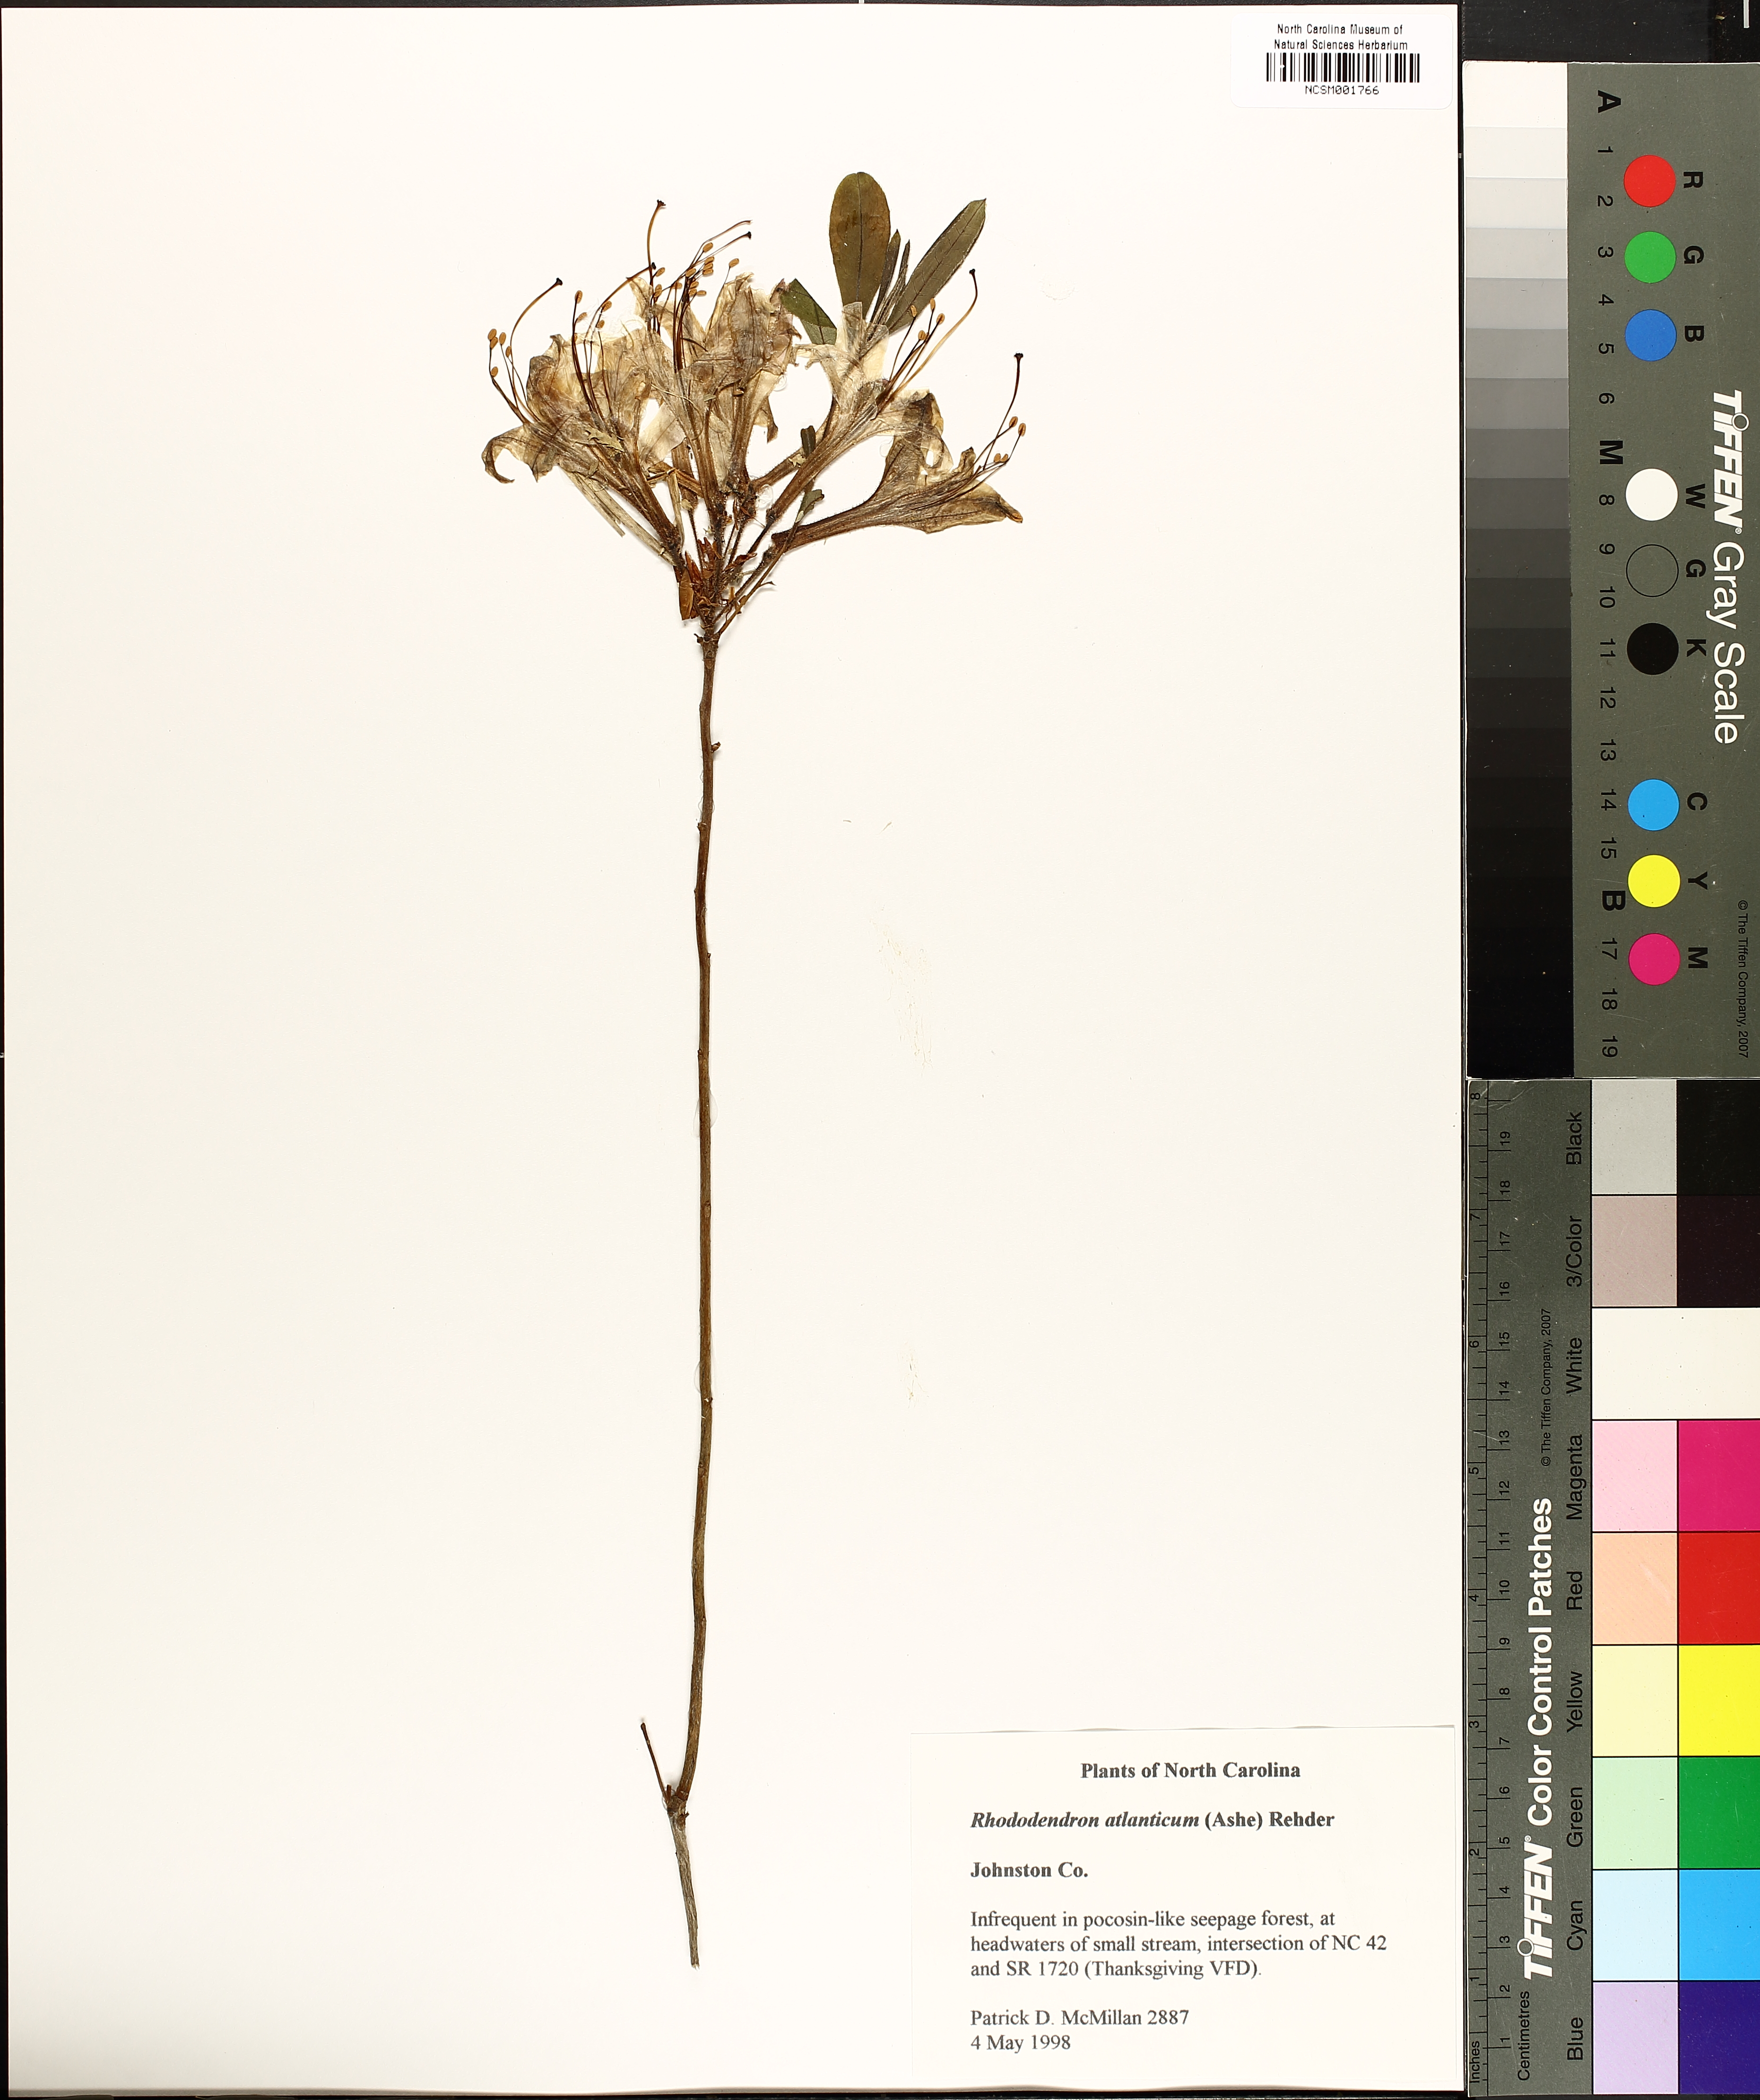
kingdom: Plantae
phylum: Tracheophyta
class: Magnoliopsida
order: Ericales
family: Ericaceae
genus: Rhododendron
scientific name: Rhododendron atlanticum
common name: Dwarf azalea
